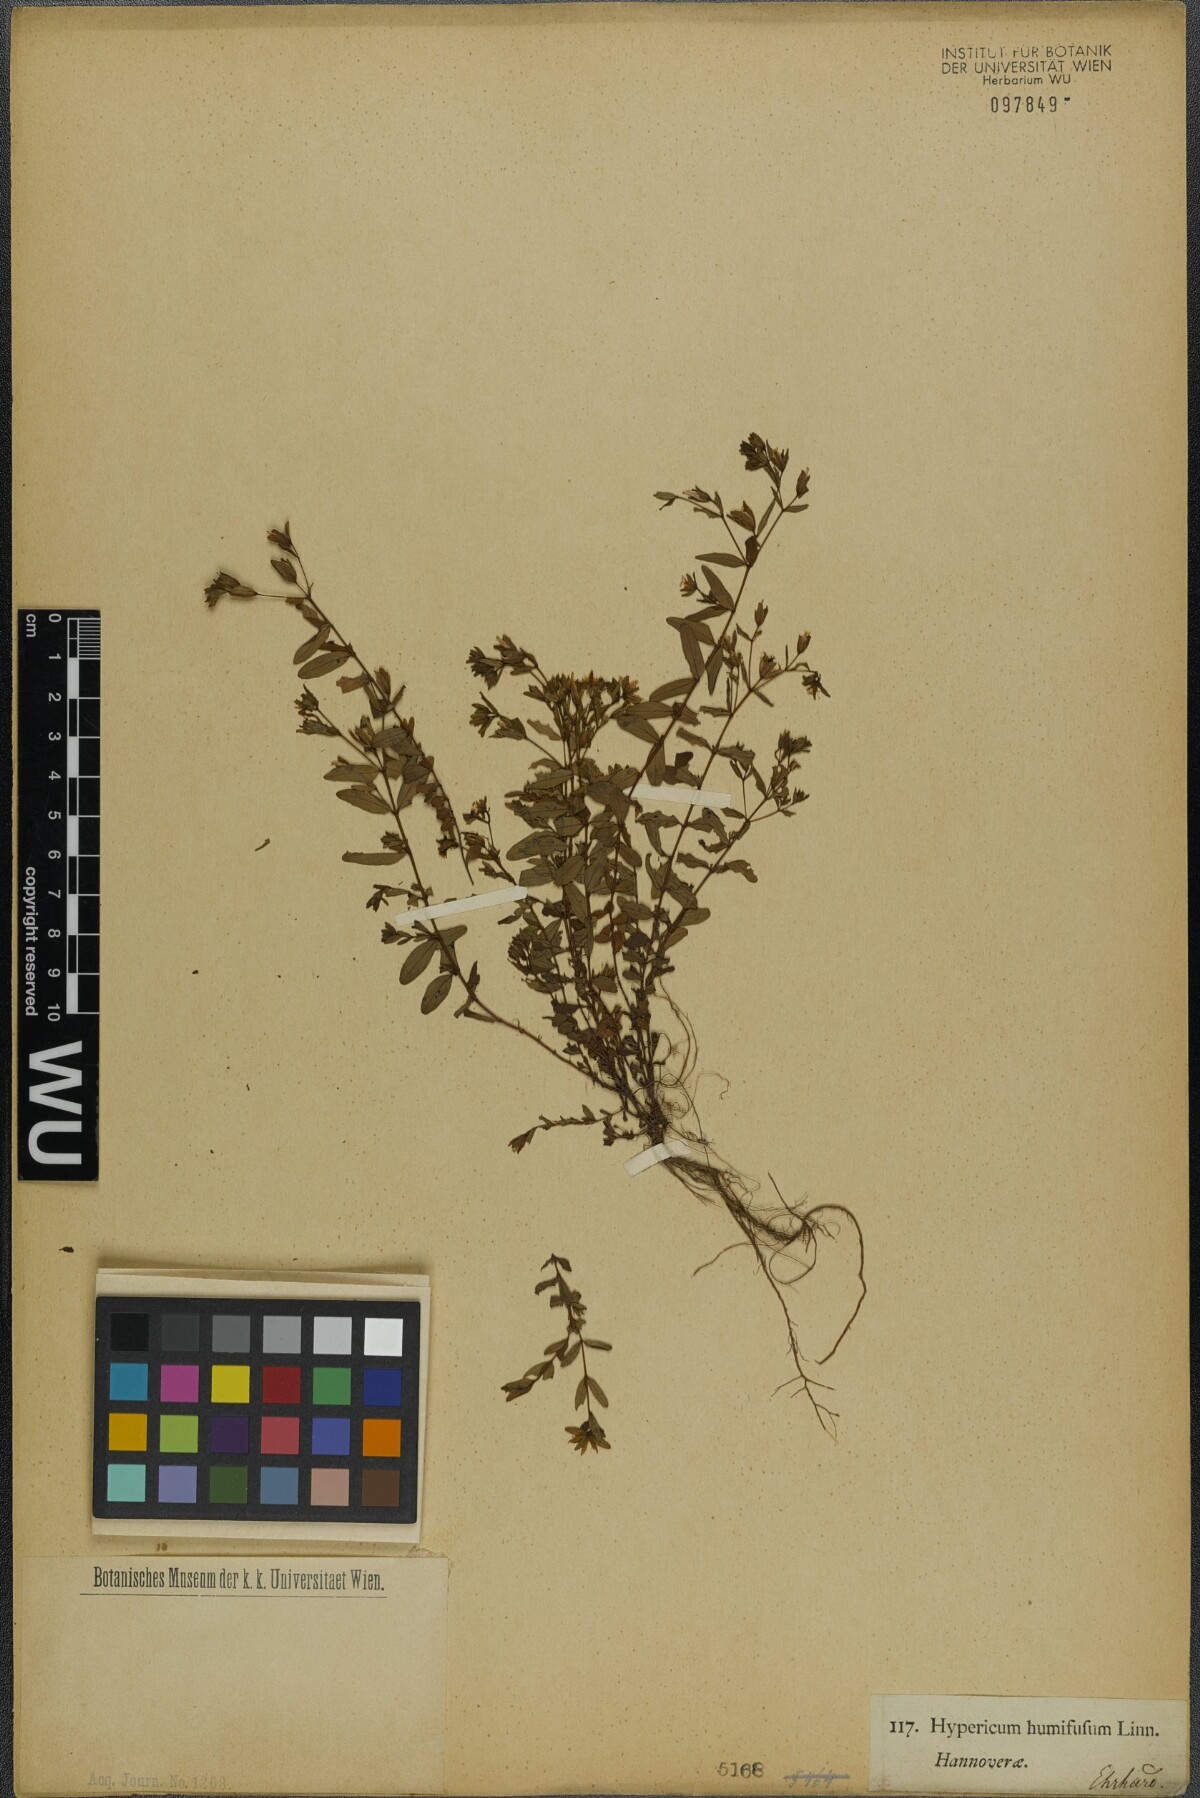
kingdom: Plantae
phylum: Tracheophyta
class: Magnoliopsida
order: Malpighiales
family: Hypericaceae
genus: Hypericum
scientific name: Hypericum humifusum
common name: Trailing st. john's-wort
